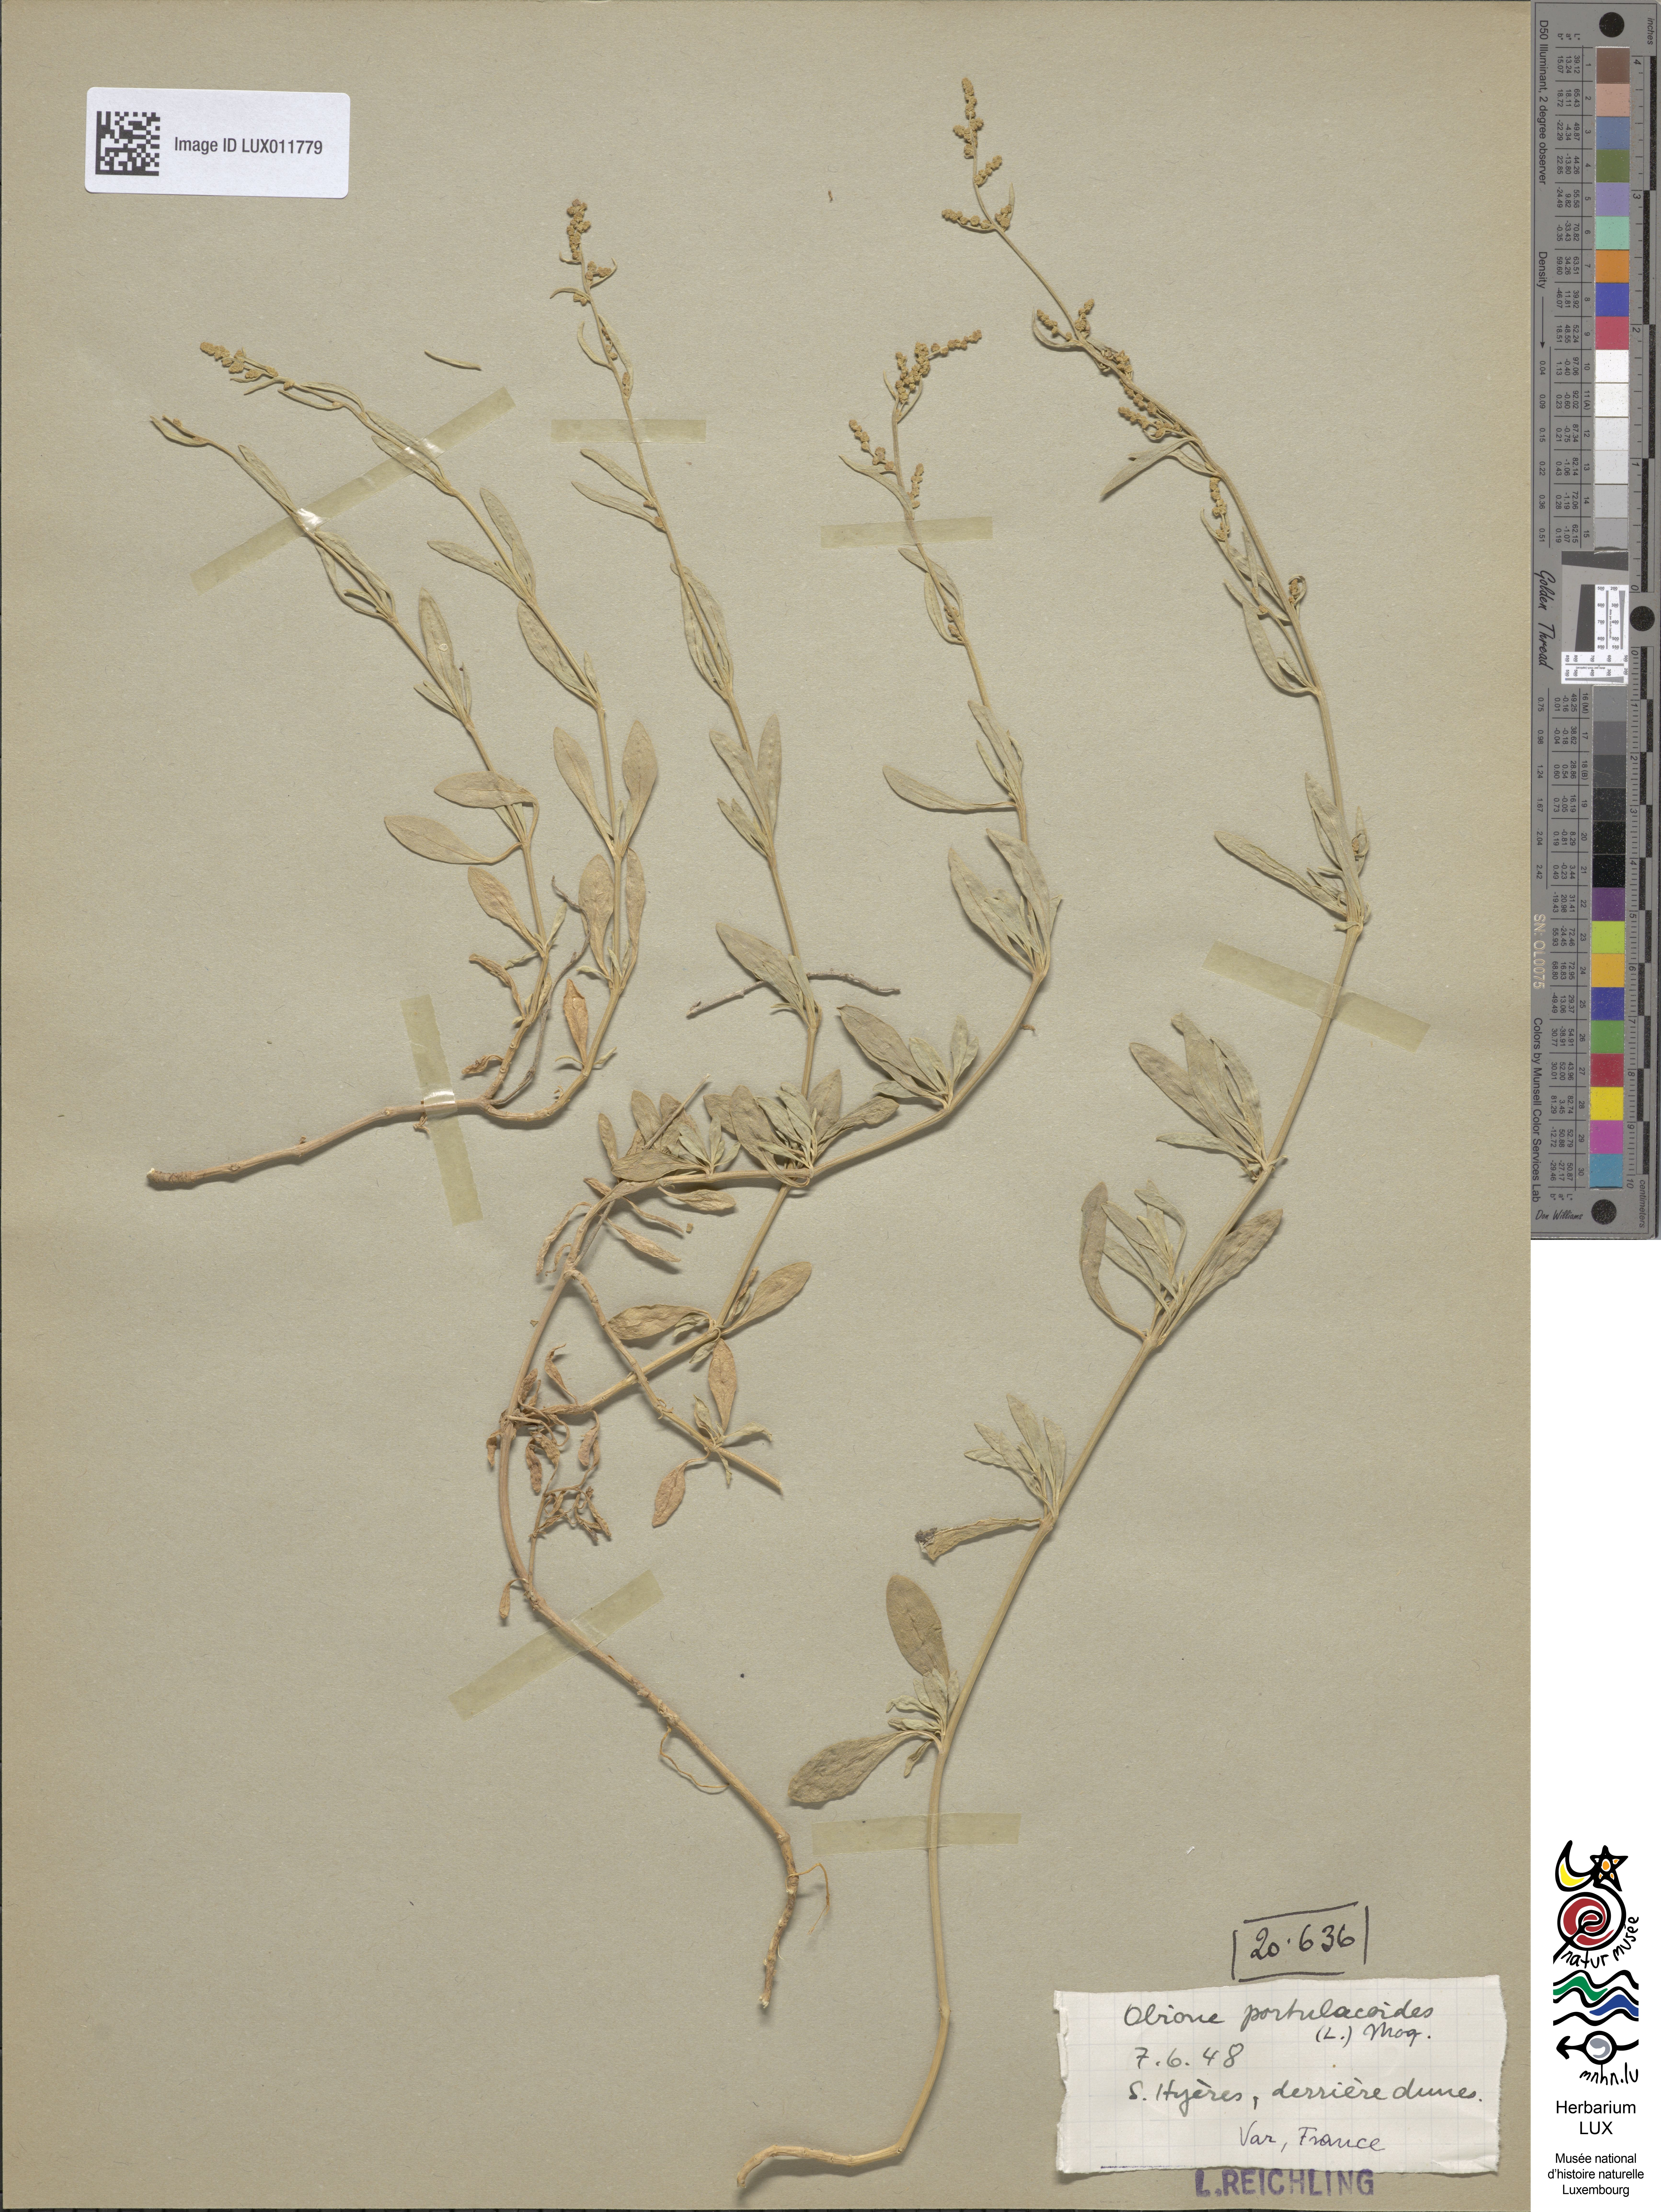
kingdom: Plantae
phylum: Tracheophyta
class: Magnoliopsida
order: Caryophyllales
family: Amaranthaceae
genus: Halimione
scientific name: Halimione portulacoides
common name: Sea-purslane
